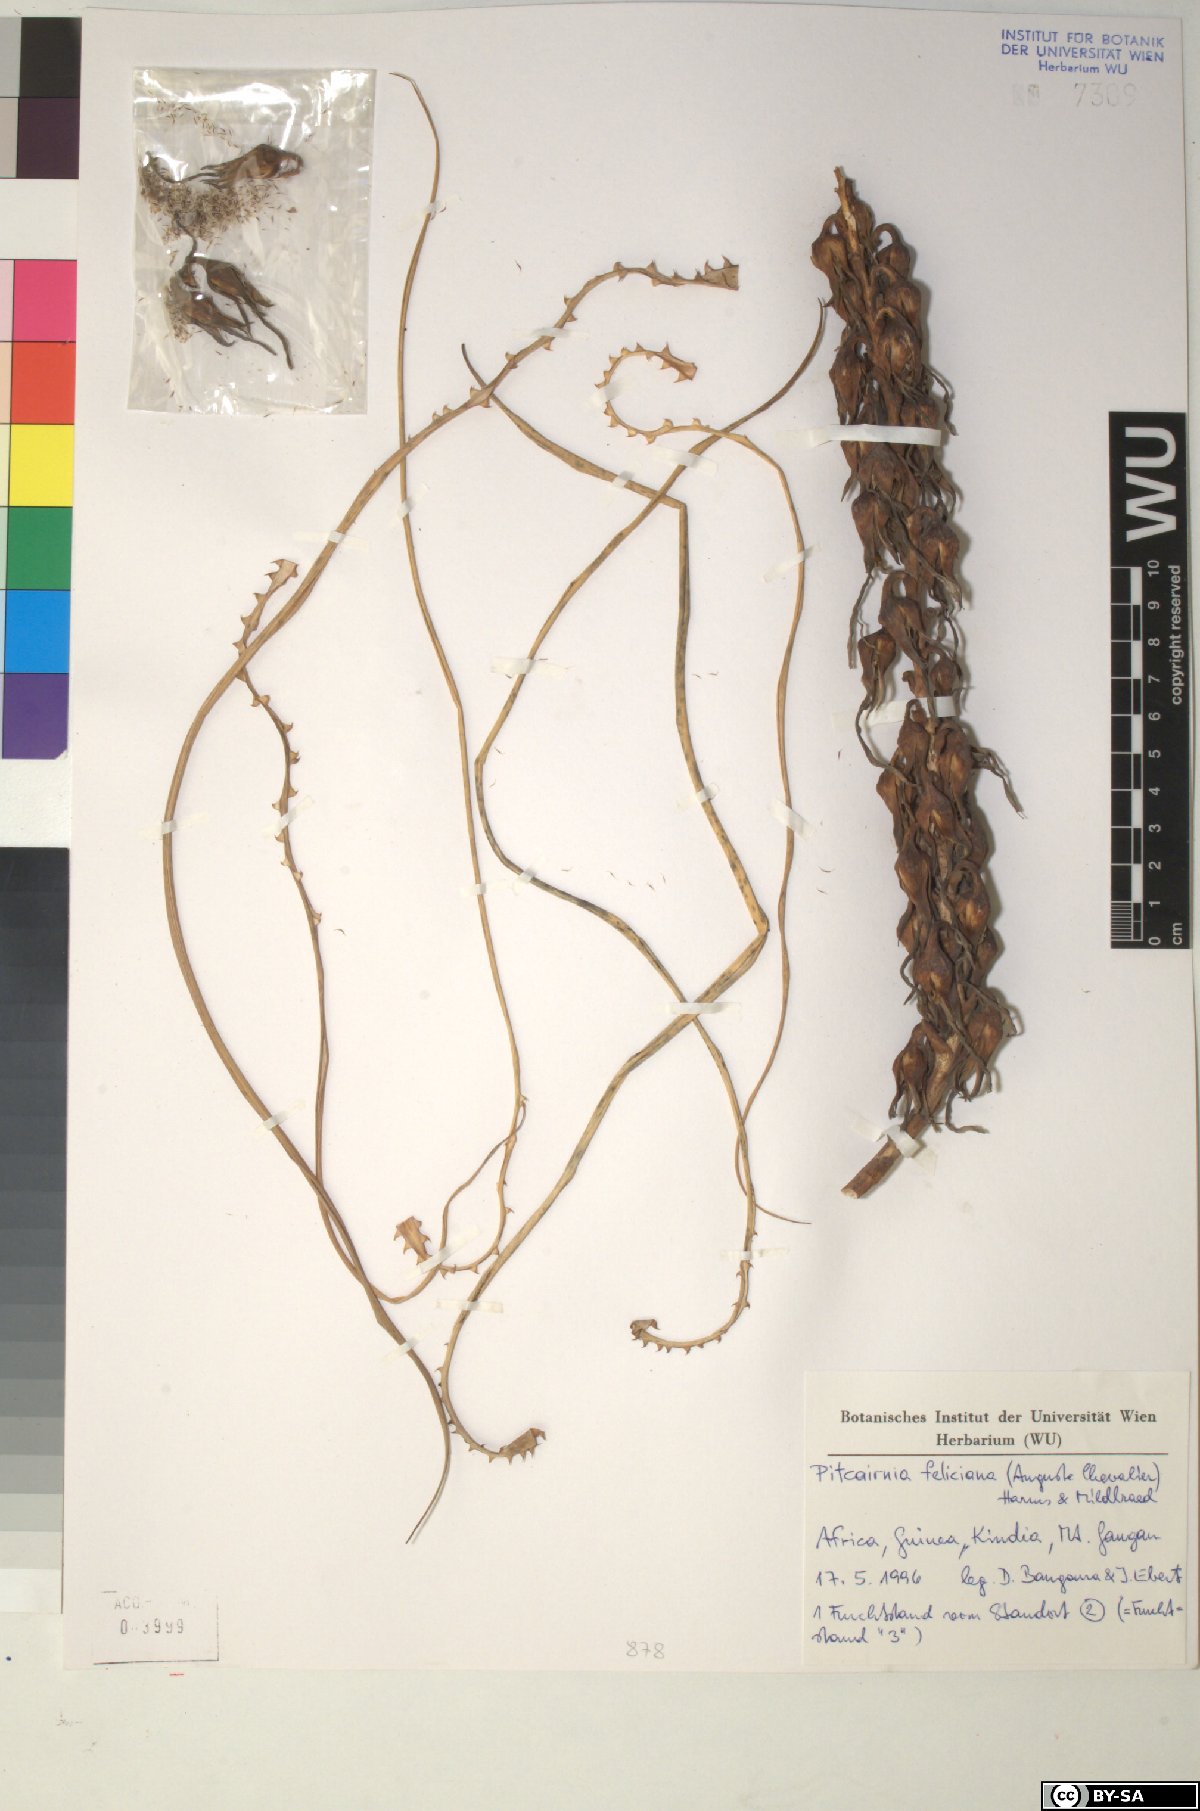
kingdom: Plantae
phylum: Tracheophyta
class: Liliopsida
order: Poales
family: Bromeliaceae
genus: Pitcairnia
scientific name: Pitcairnia feliciana
